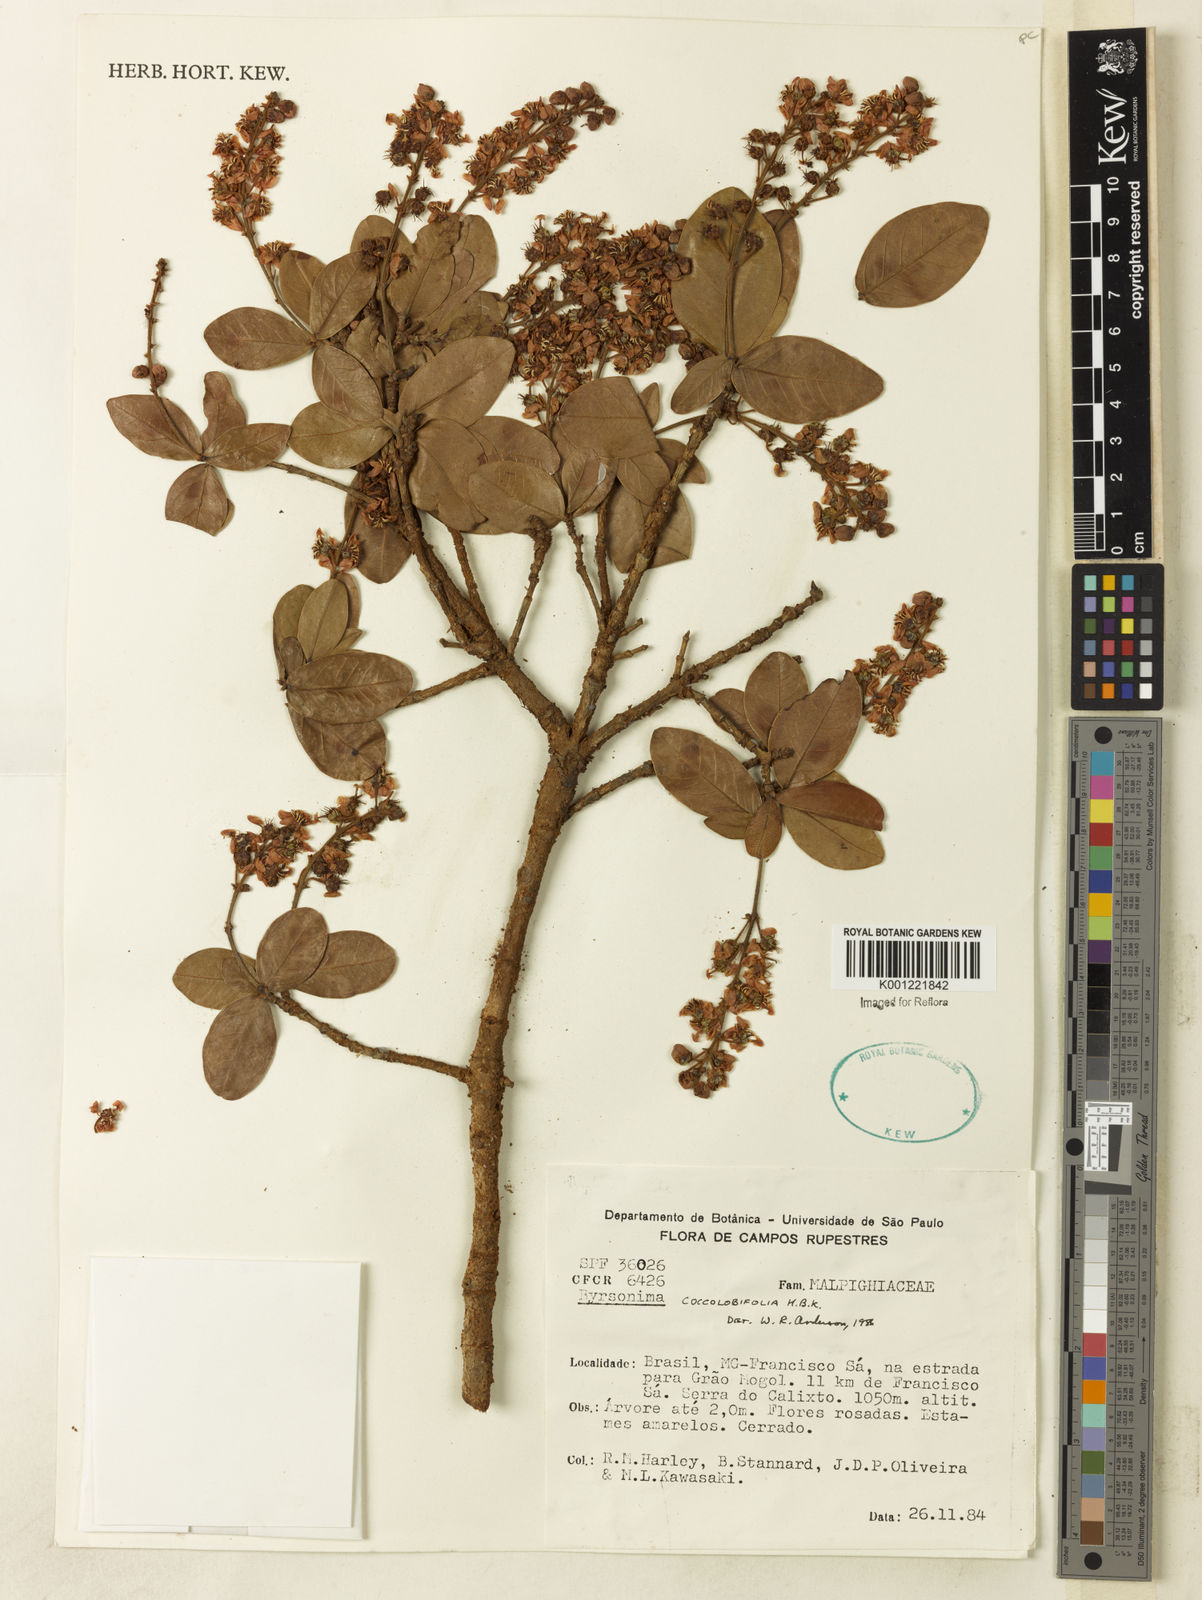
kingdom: Plantae
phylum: Tracheophyta
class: Magnoliopsida
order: Malpighiales
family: Malpighiaceae
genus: Byrsonima
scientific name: Byrsonima coccolobifolia
